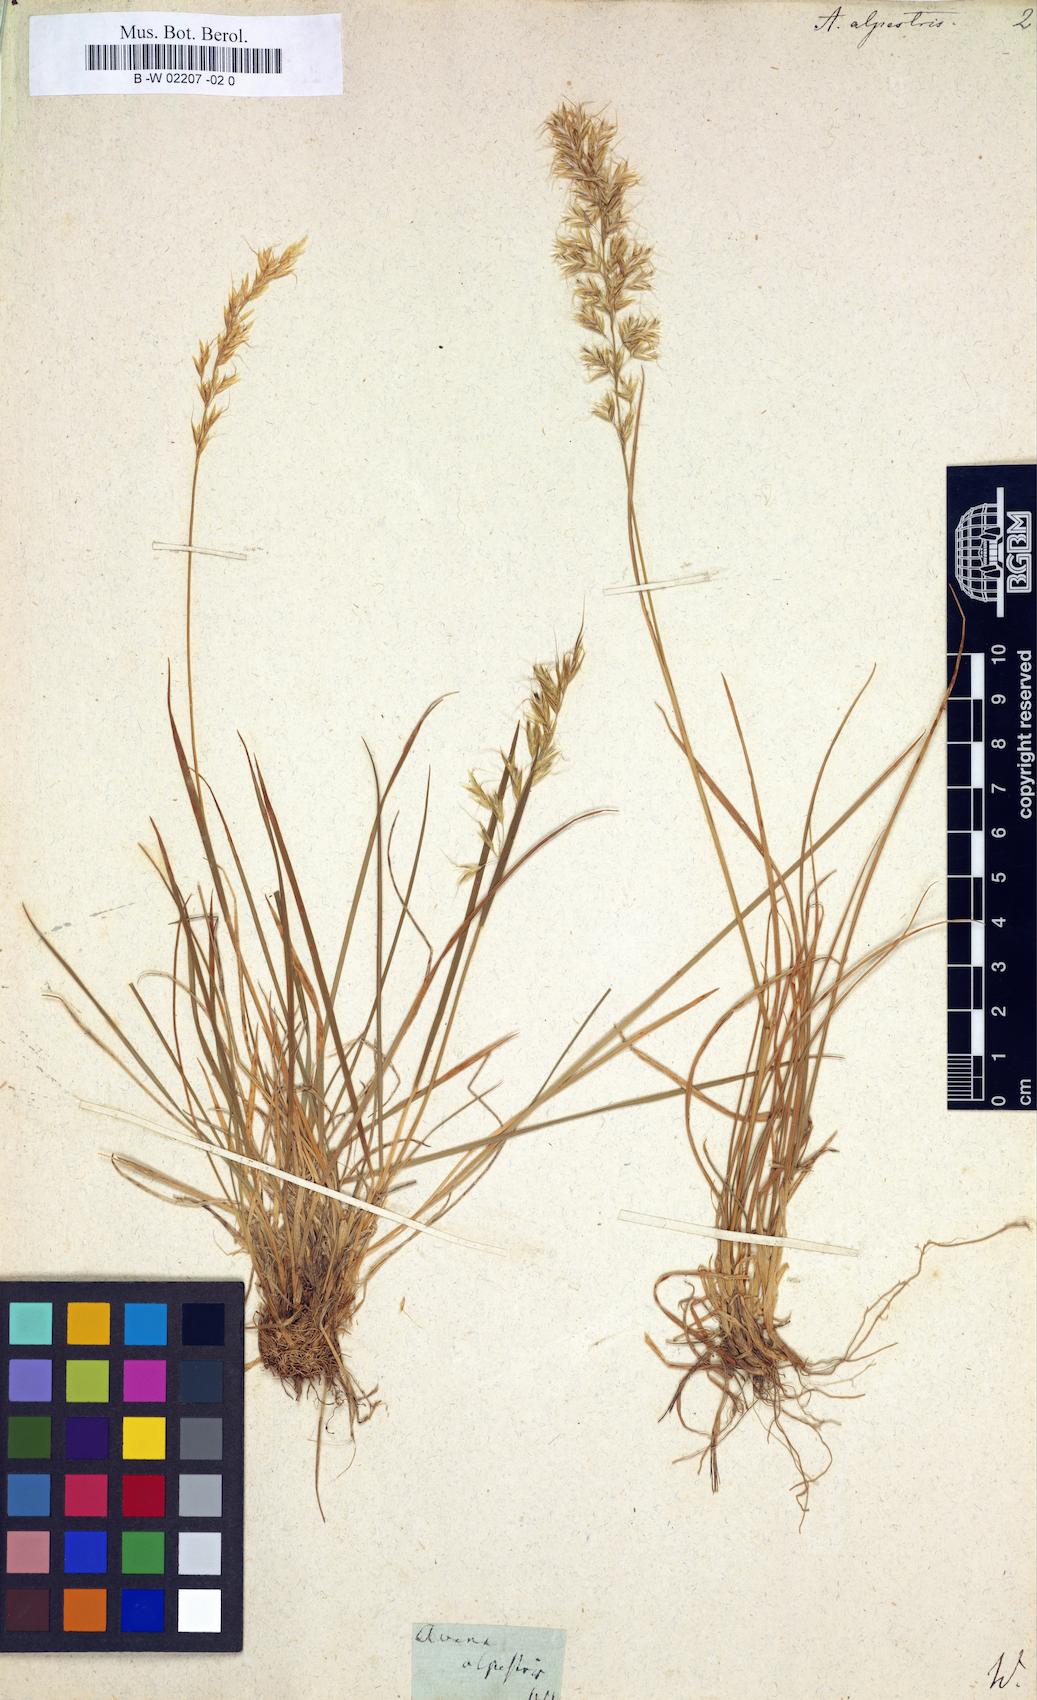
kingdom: Plantae
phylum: Tracheophyta
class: Liliopsida
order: Poales
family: Poaceae
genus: Avena
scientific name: Avena alpestris
